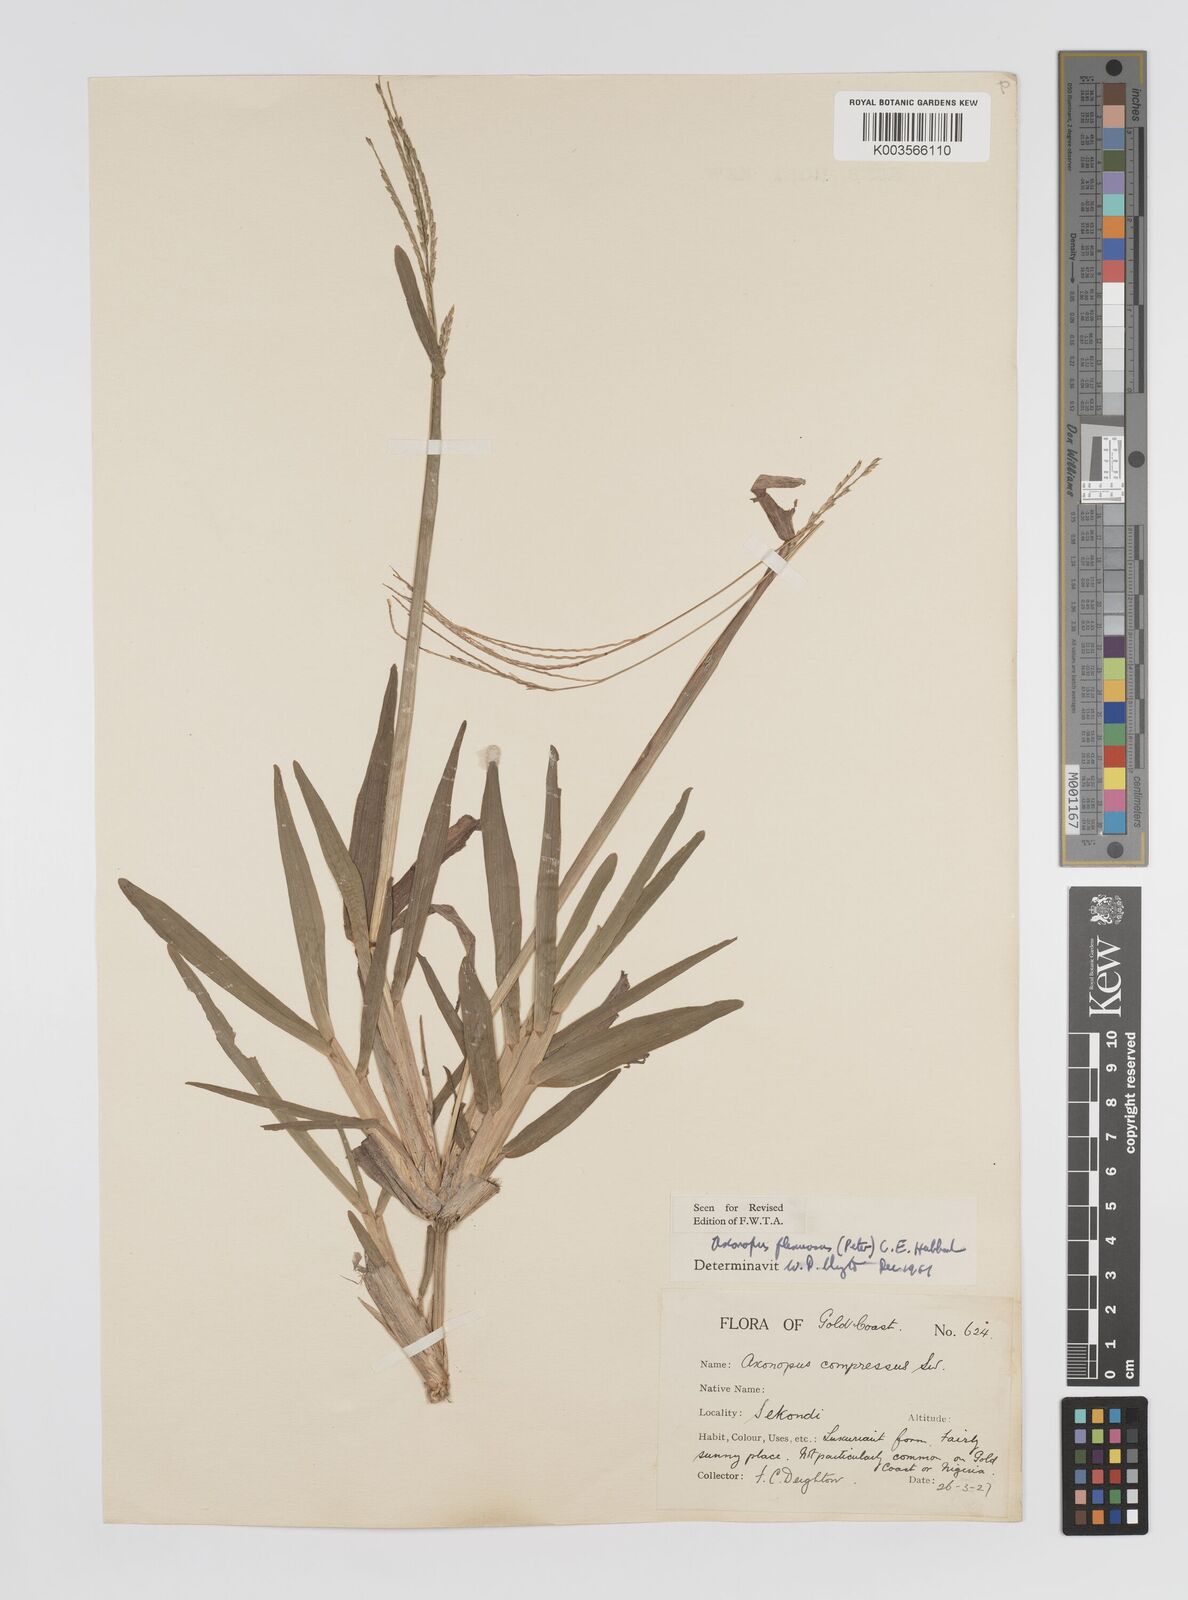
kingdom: Plantae
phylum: Tracheophyta
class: Liliopsida
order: Poales
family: Poaceae
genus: Axonopus
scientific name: Axonopus flexuosus
